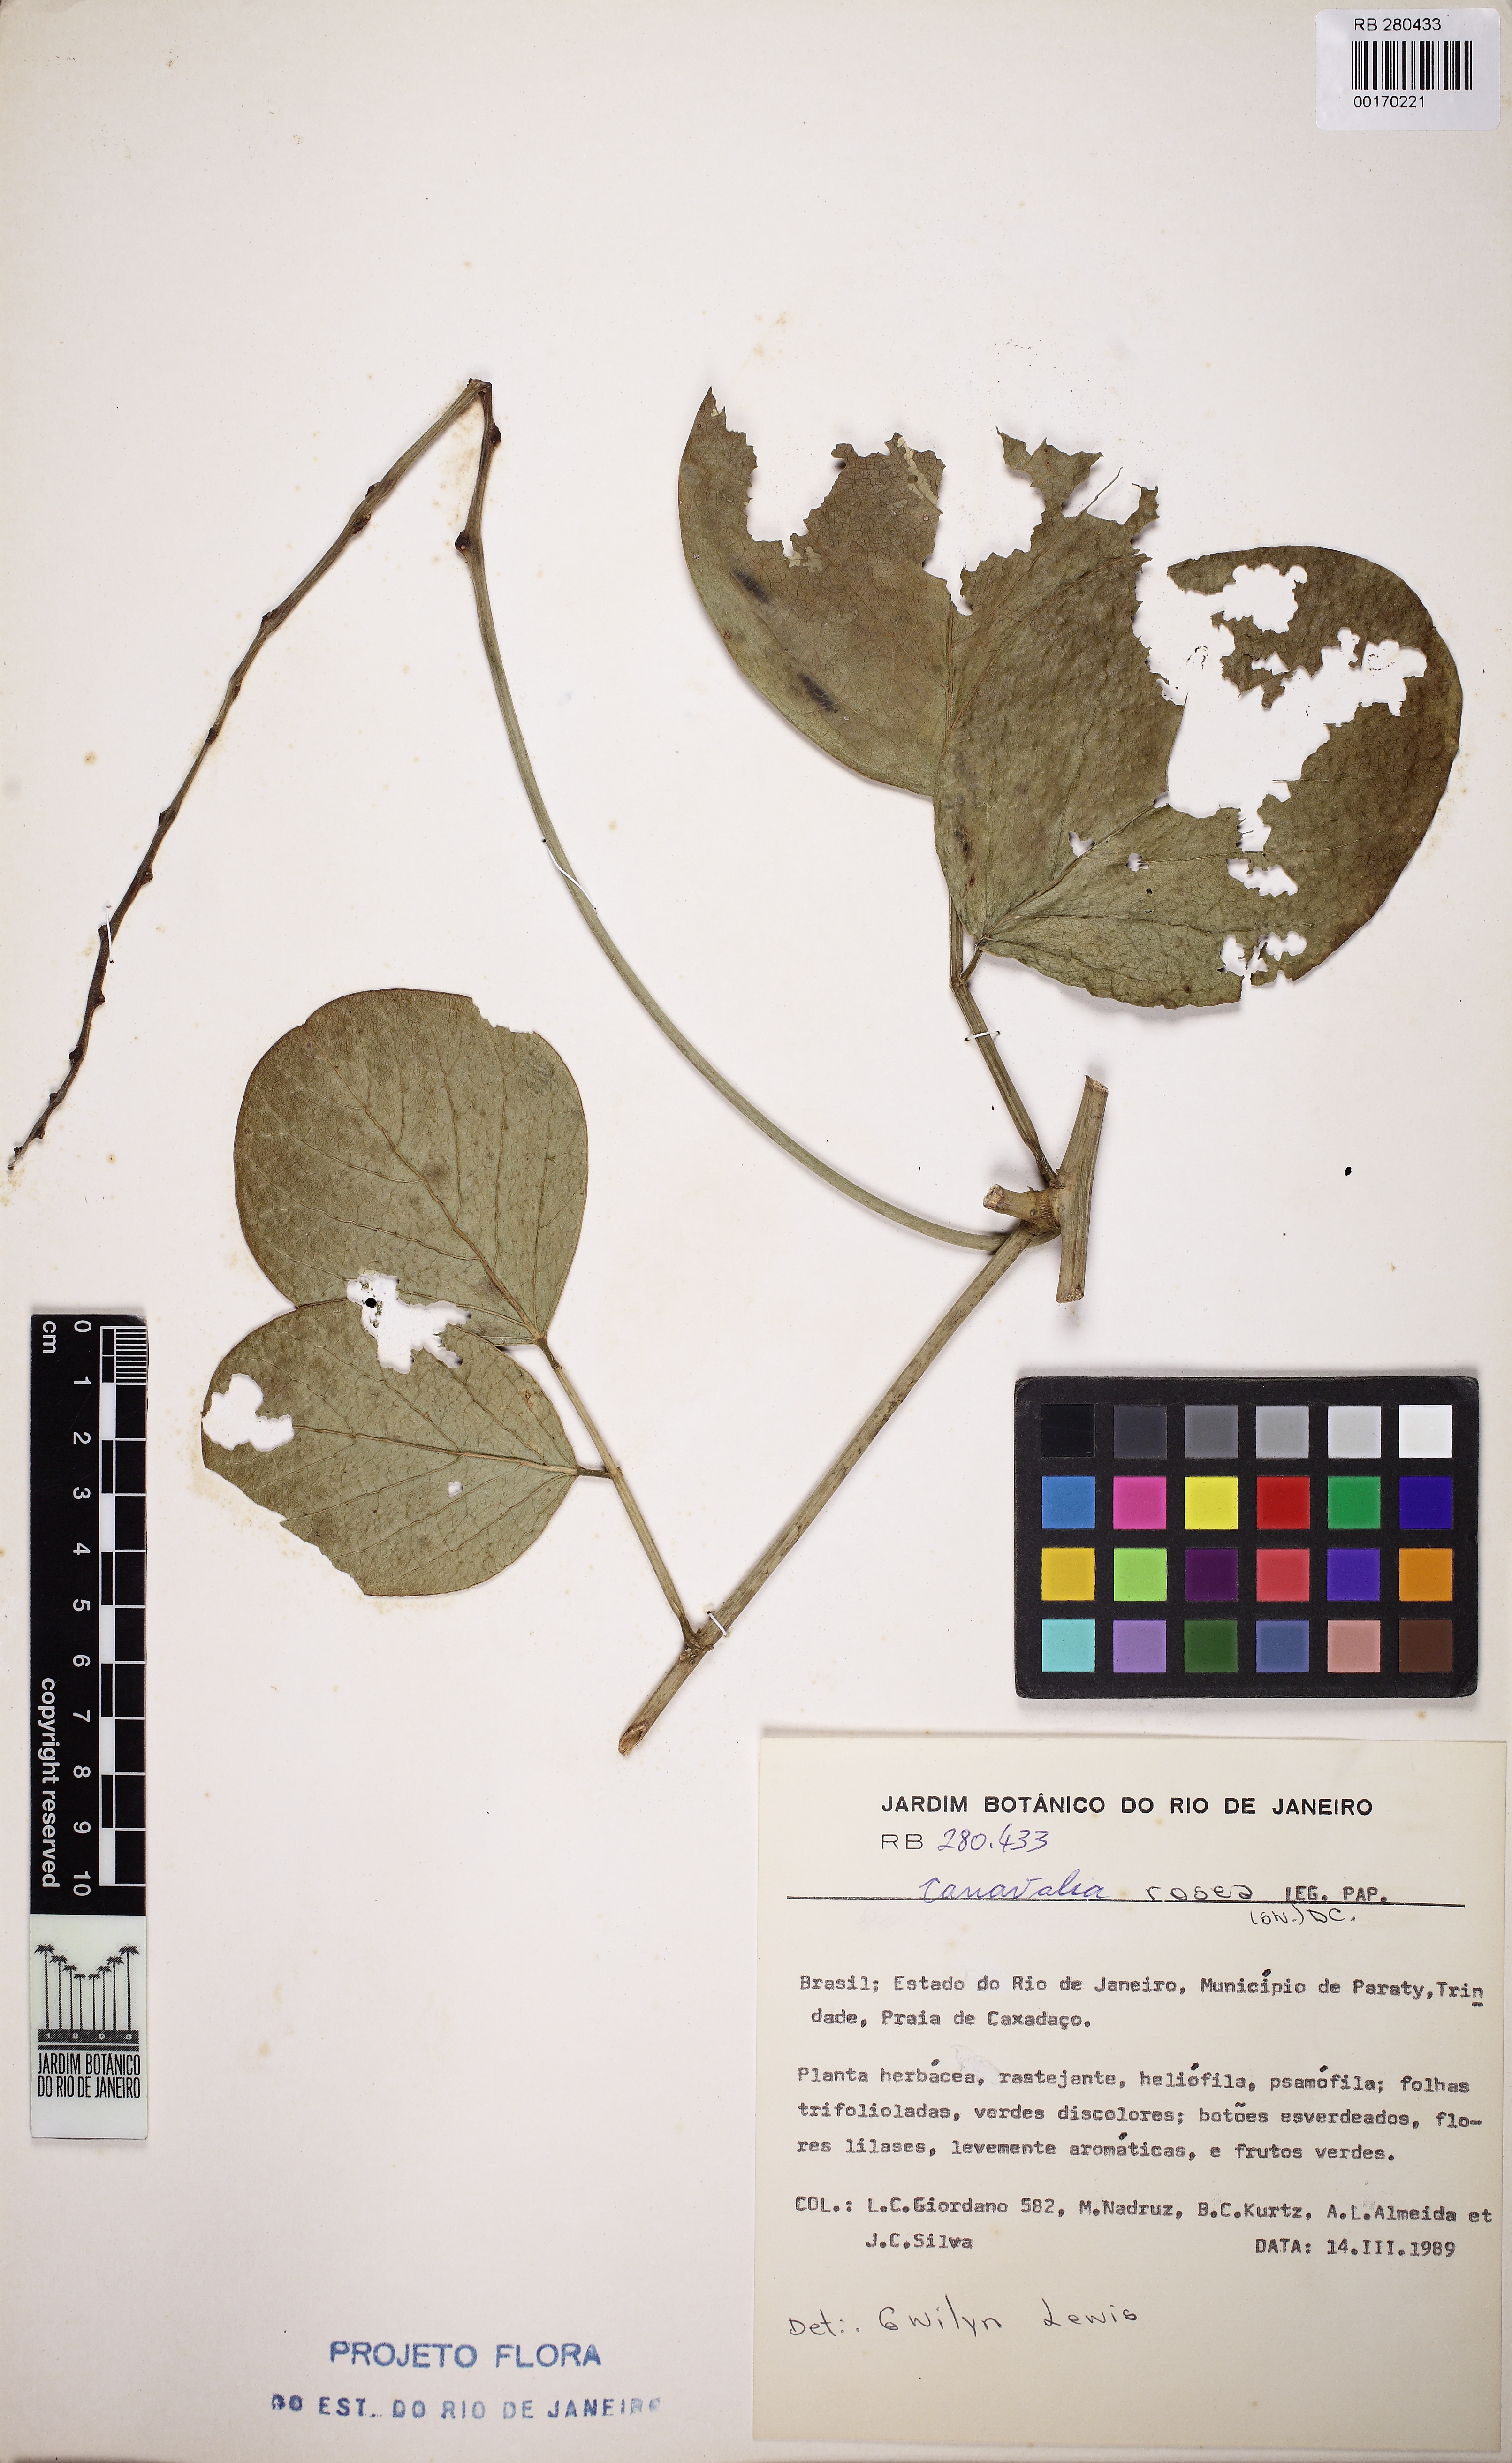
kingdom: Plantae
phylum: Tracheophyta
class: Magnoliopsida
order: Fabales
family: Fabaceae
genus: Canavalia
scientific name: Canavalia rosea
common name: Beach-bean
